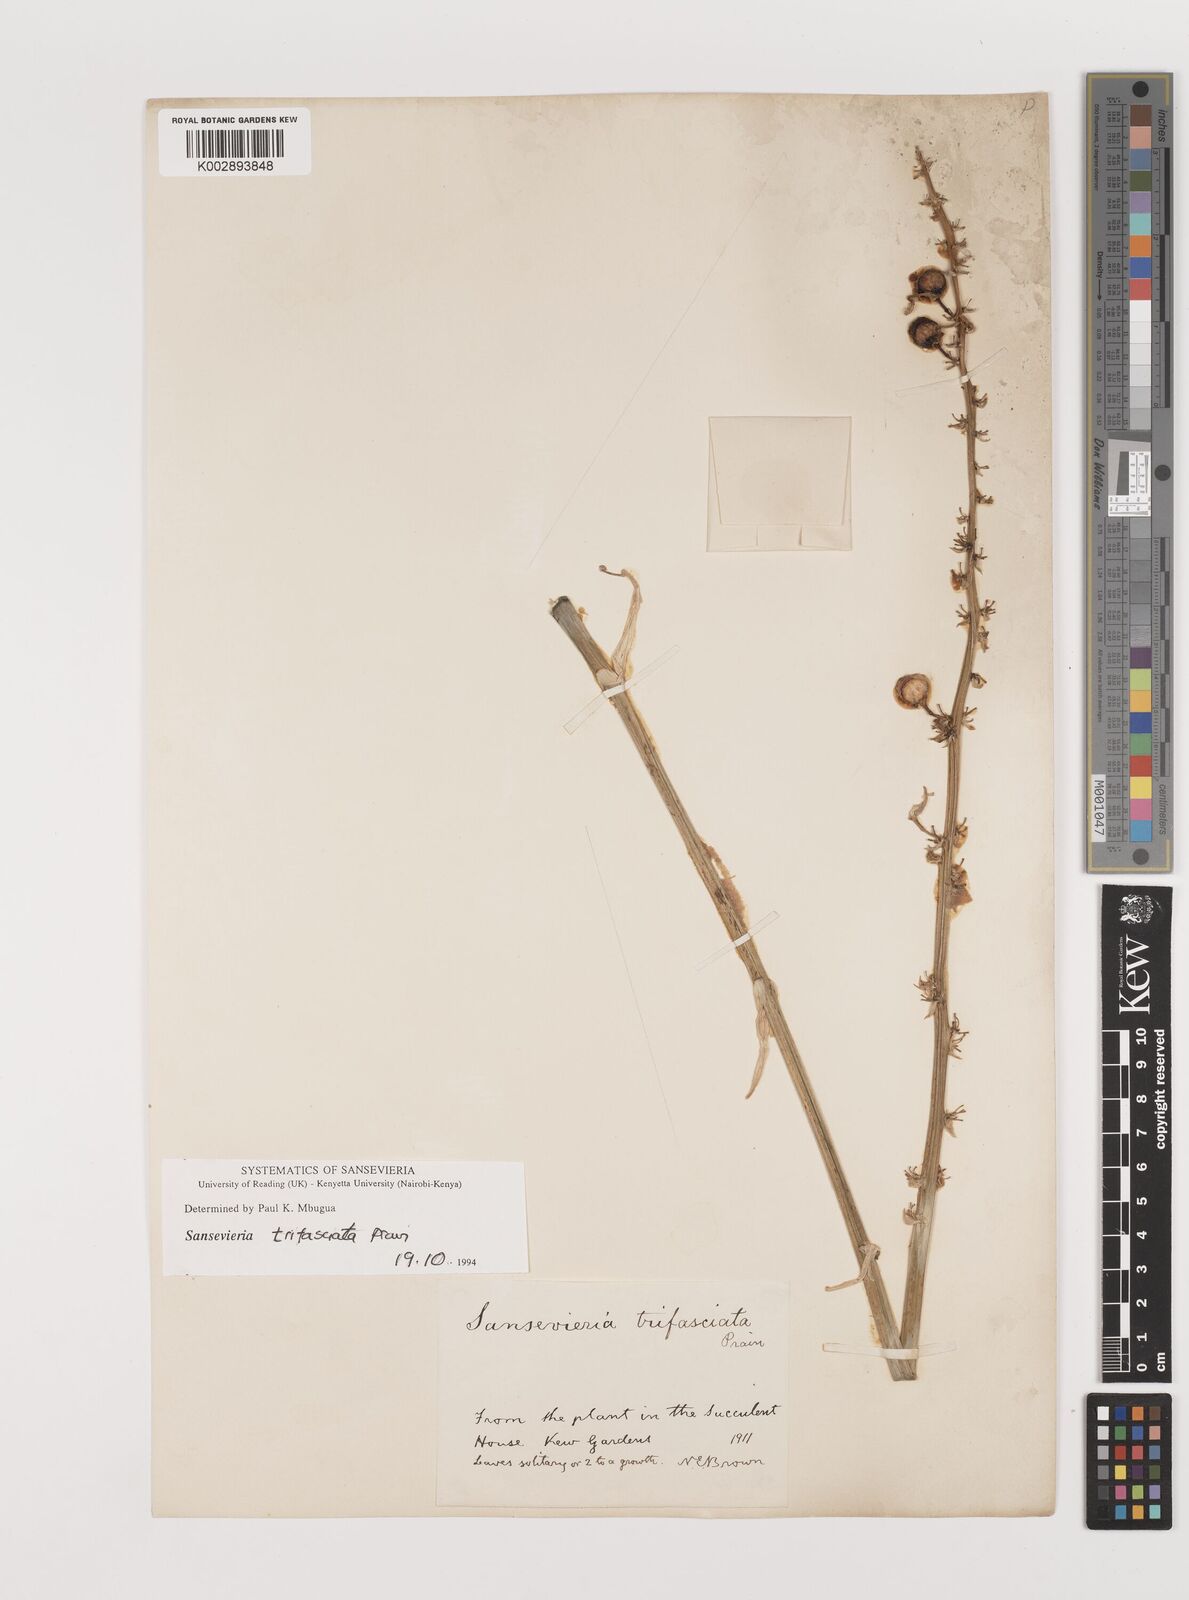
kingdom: Plantae
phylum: Tracheophyta
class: Liliopsida
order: Asparagales
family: Asparagaceae
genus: Dracaena
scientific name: Dracaena trifasciata
